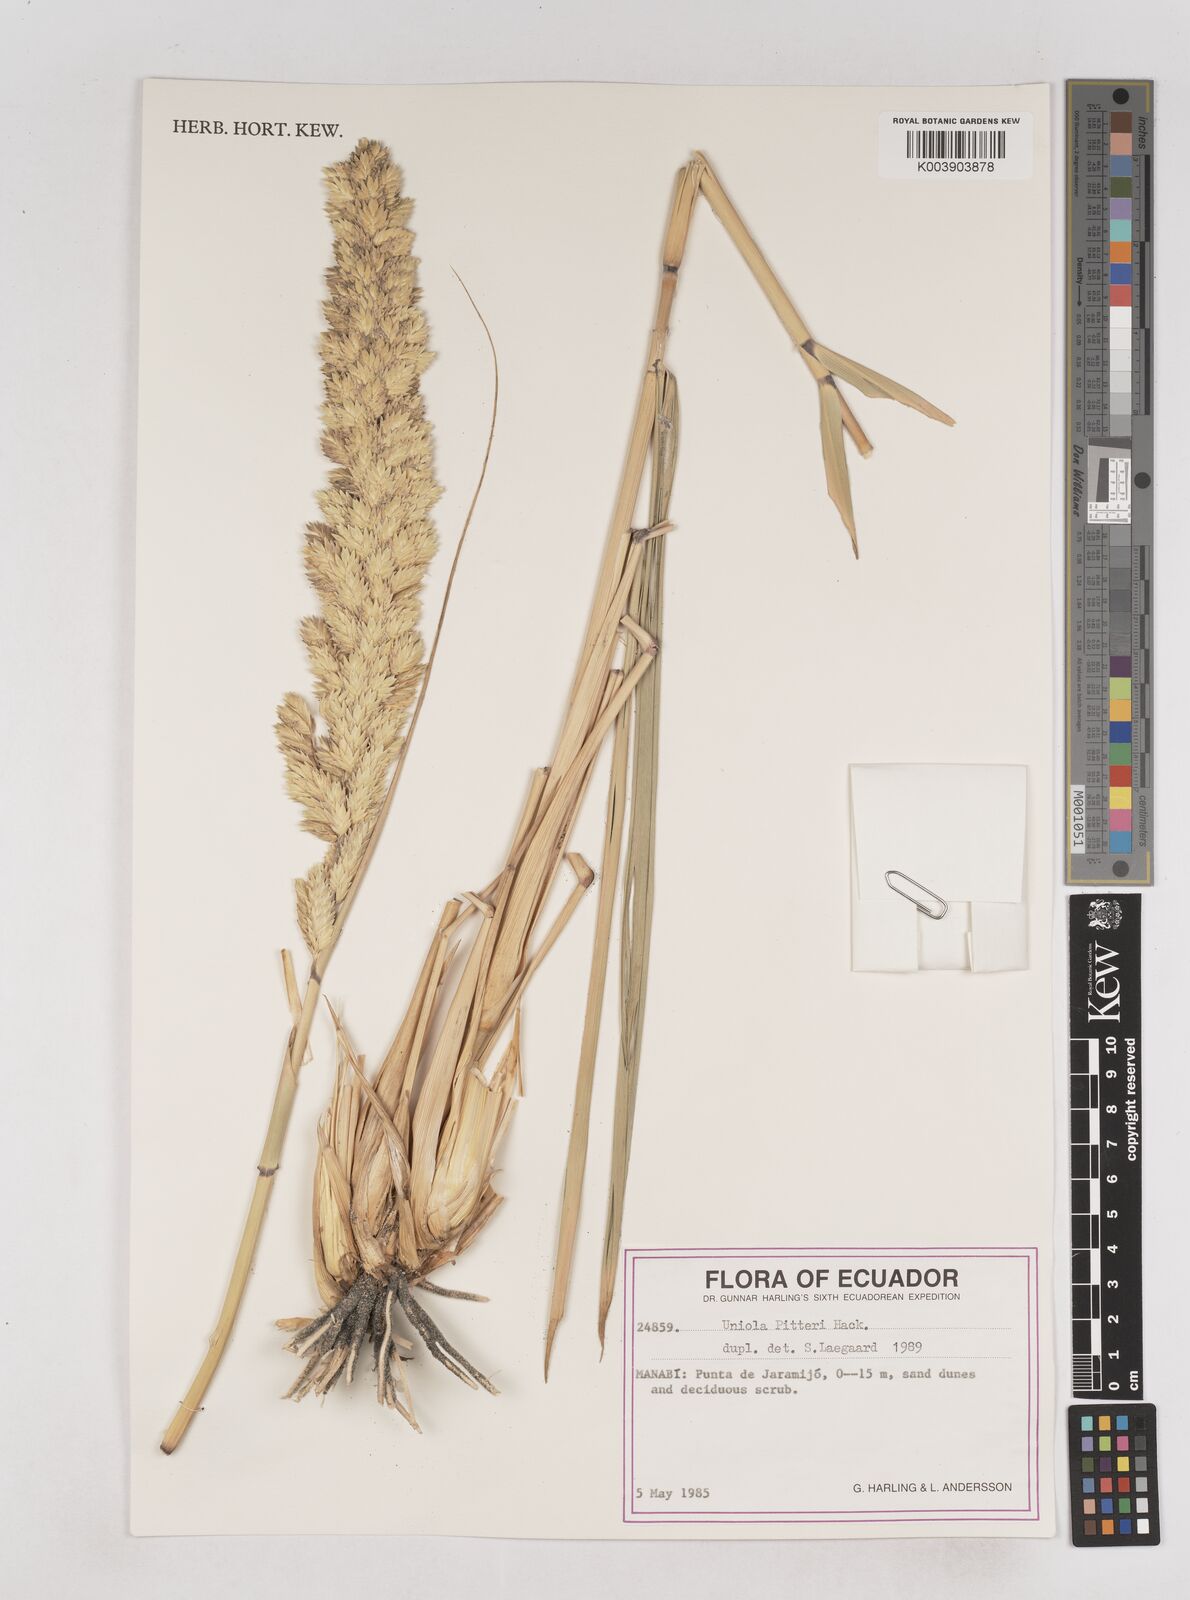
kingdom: Plantae
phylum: Tracheophyta
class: Liliopsida
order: Poales
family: Poaceae
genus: Uniola
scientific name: Uniola pittieri
